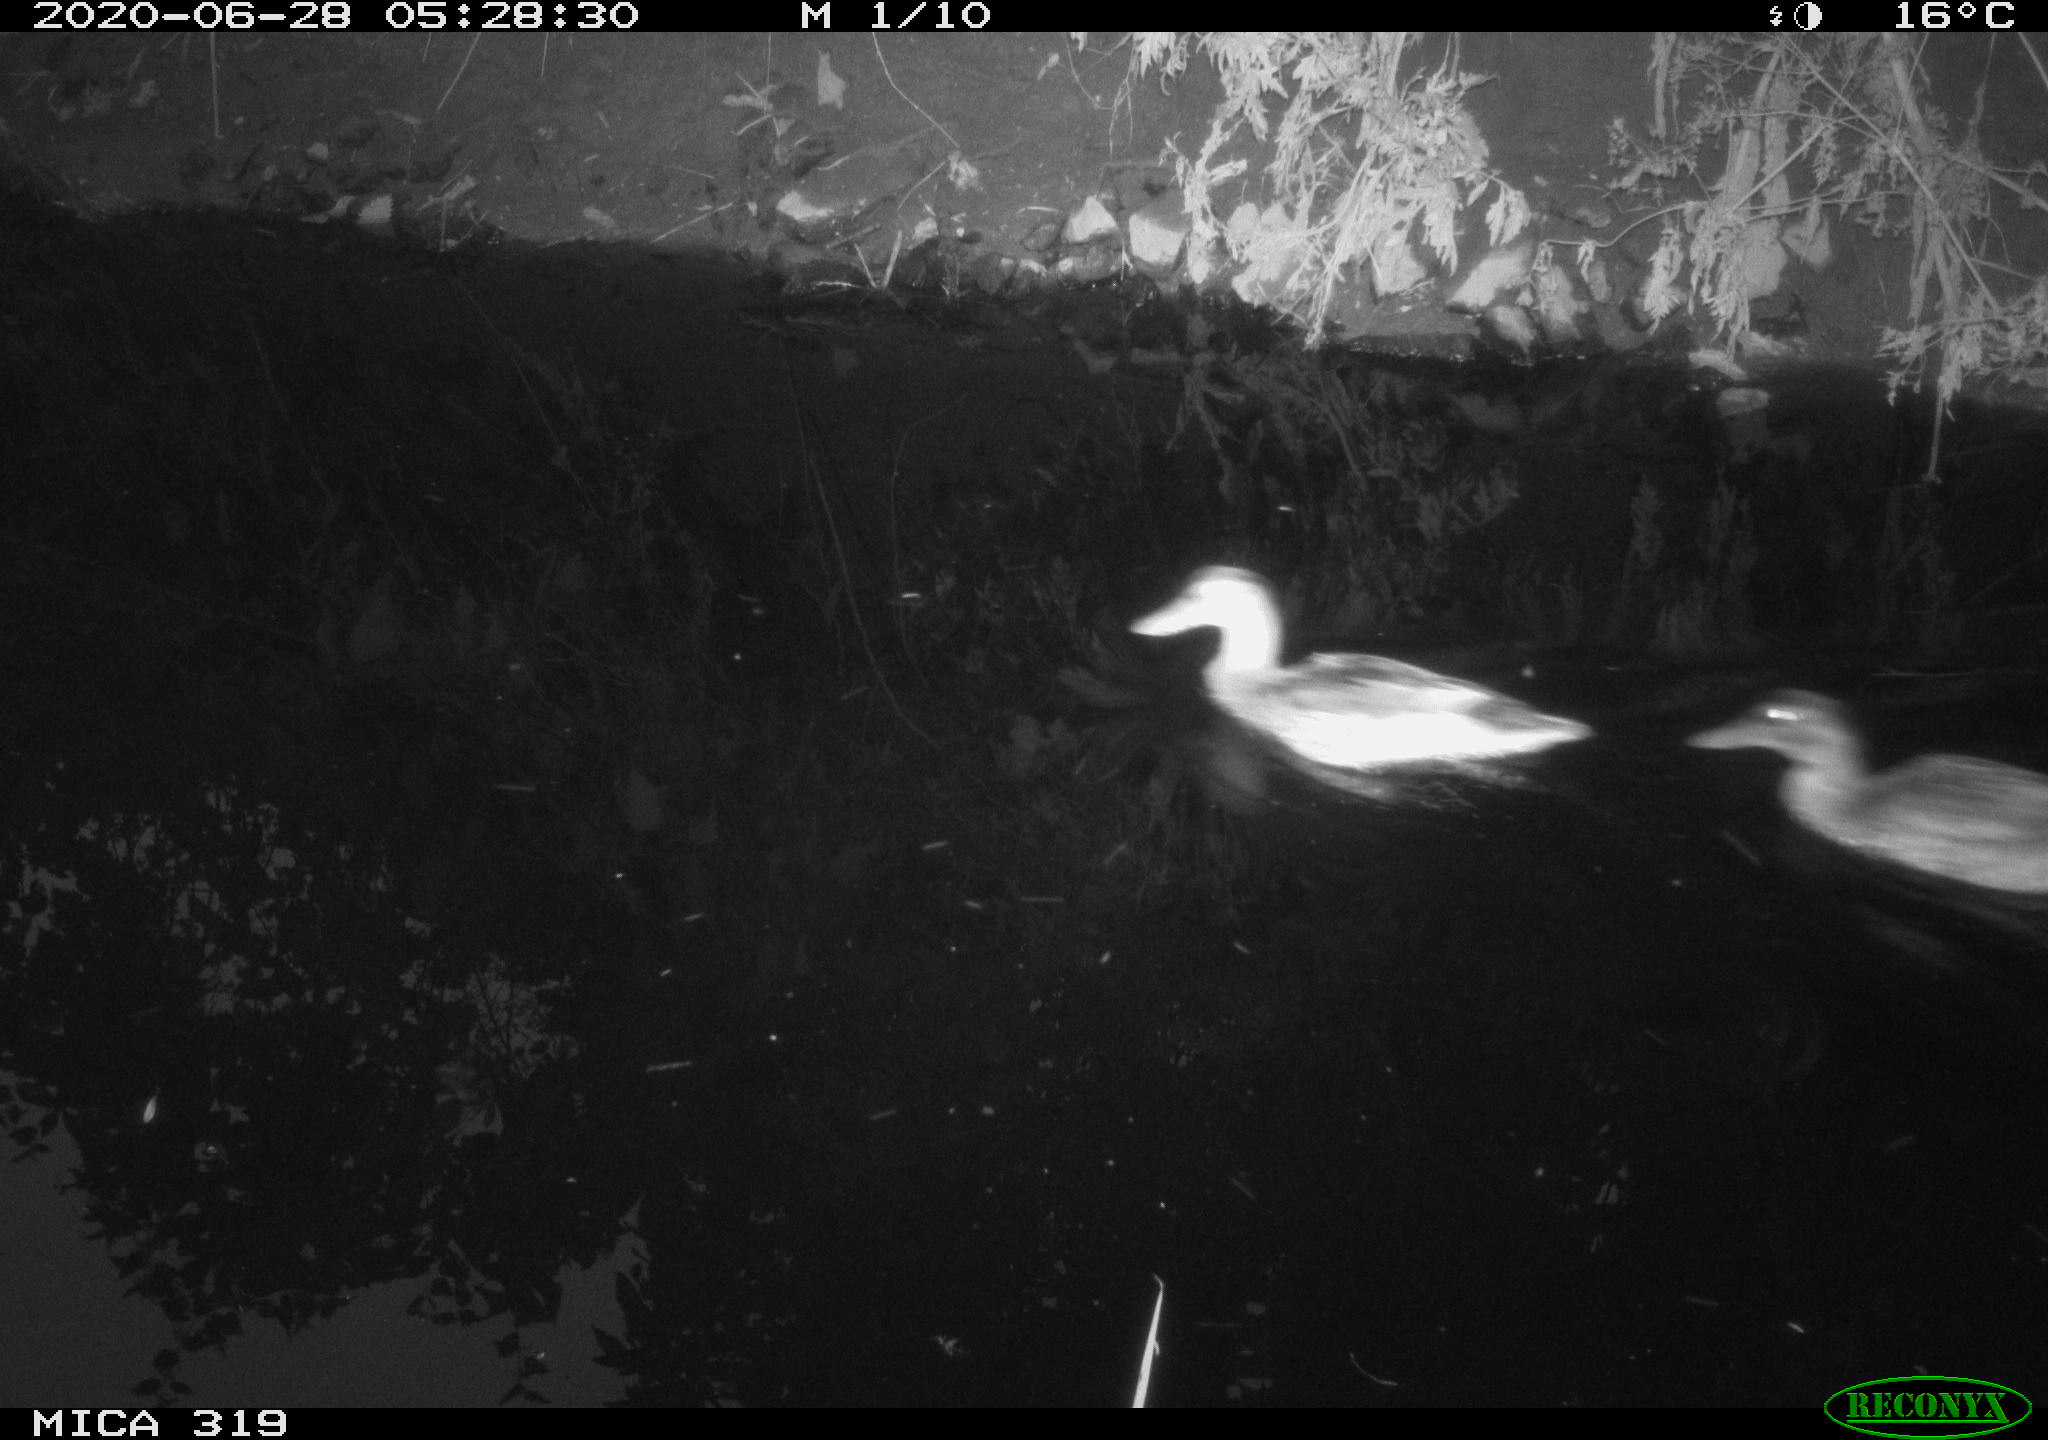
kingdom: Animalia
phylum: Chordata
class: Aves
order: Anseriformes
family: Anatidae
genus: Anas
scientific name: Anas platyrhynchos
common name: Mallard
